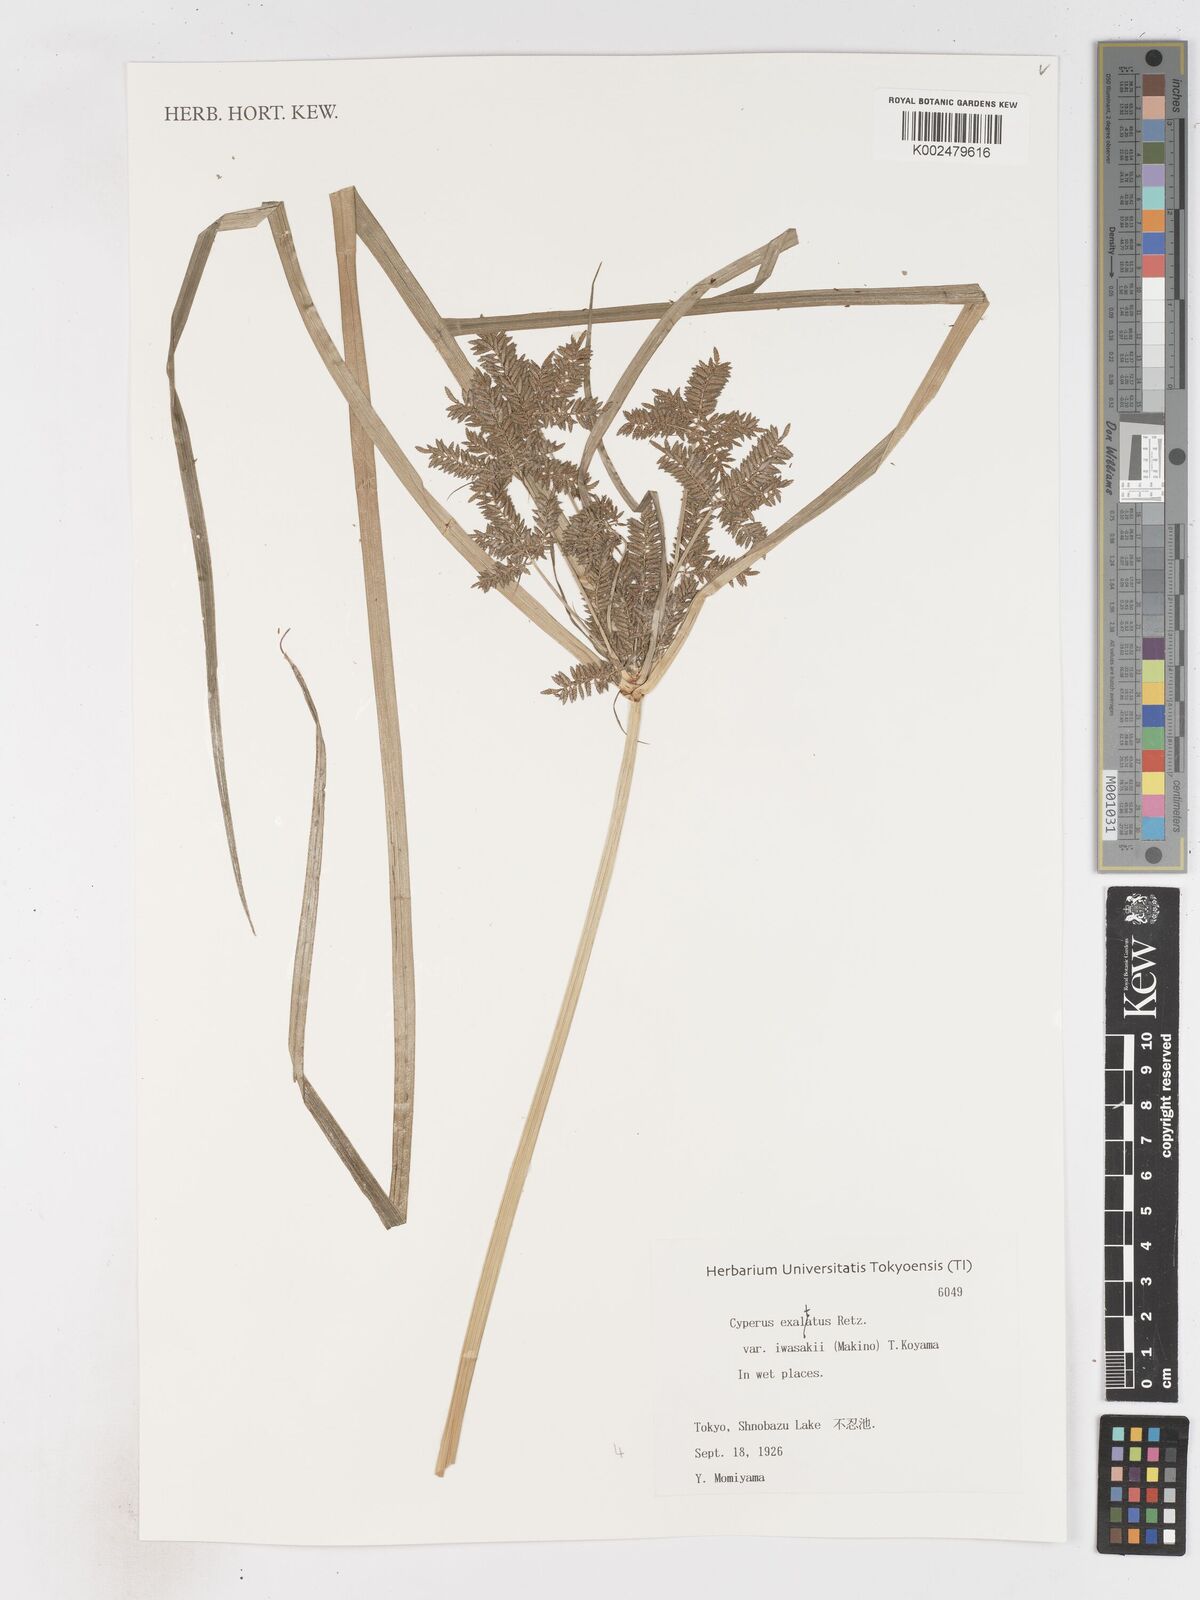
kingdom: Plantae
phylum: Tracheophyta
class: Liliopsida
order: Poales
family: Cyperaceae
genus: Cyperus
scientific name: Cyperus exaltatus
